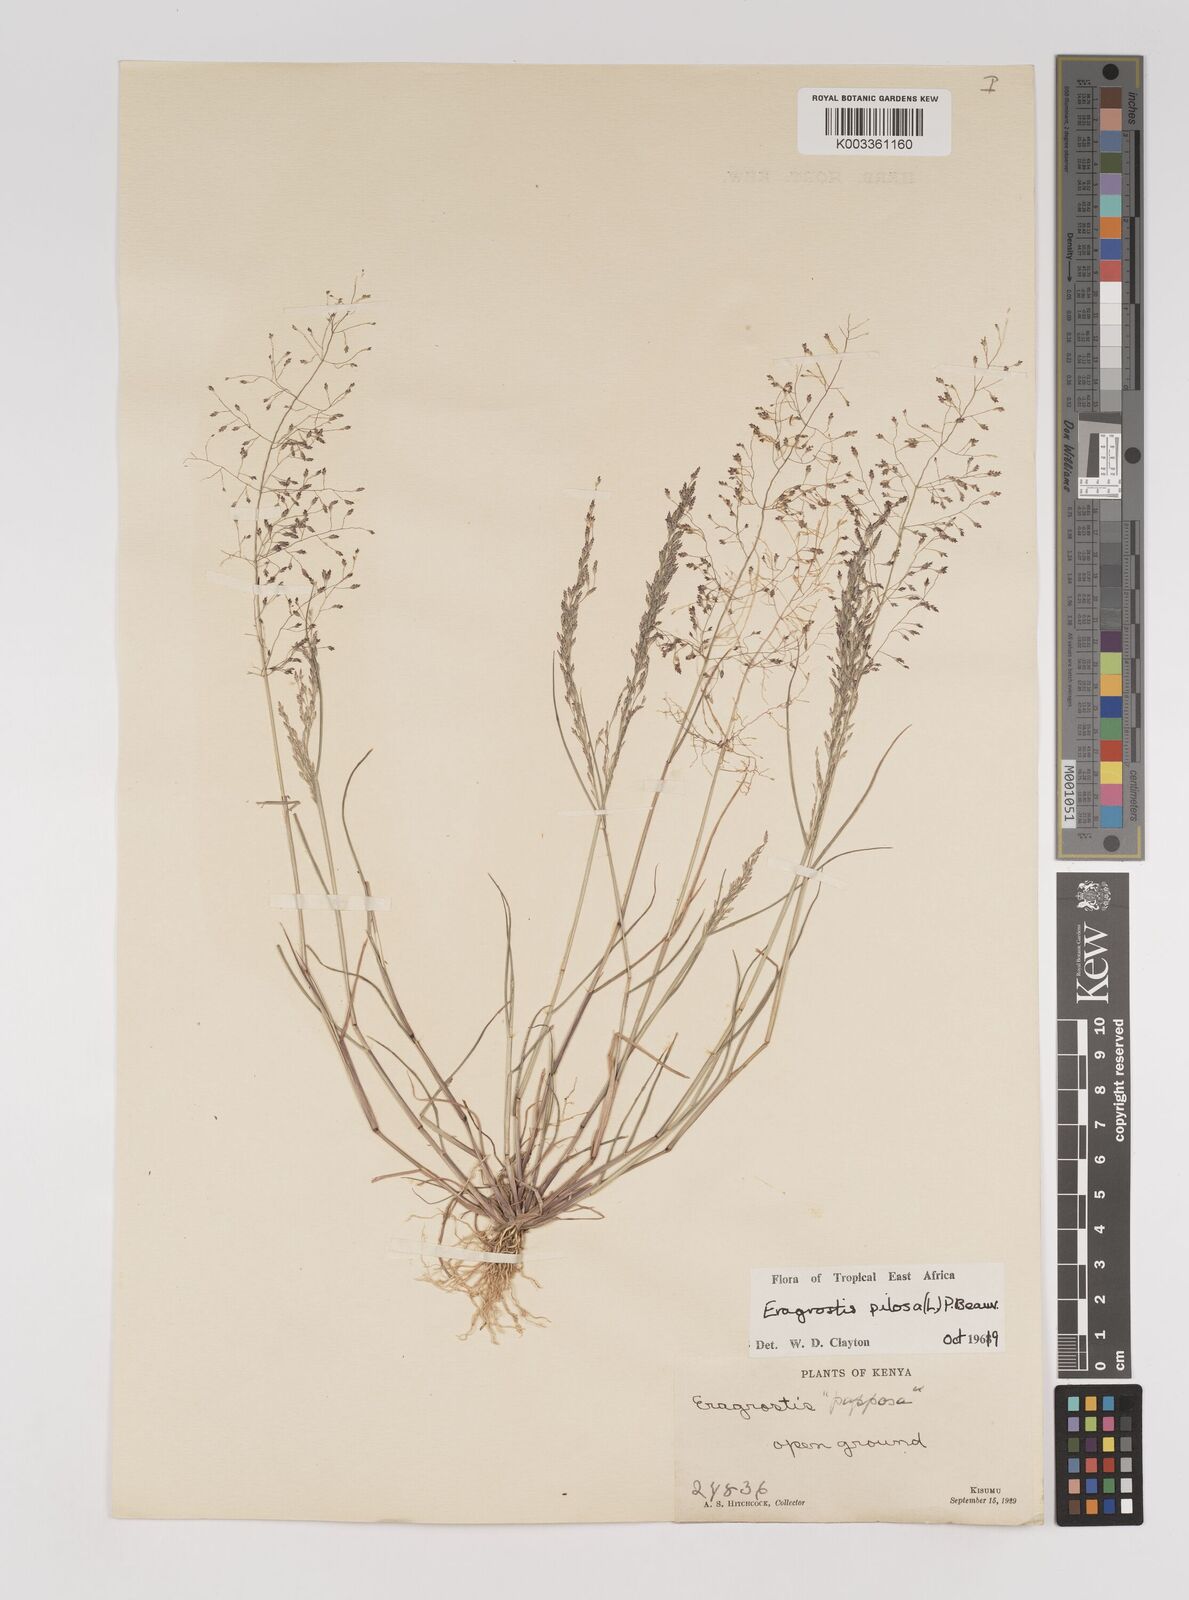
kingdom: Plantae
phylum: Tracheophyta
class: Liliopsida
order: Poales
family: Poaceae
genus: Eragrostis
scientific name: Eragrostis pilosa
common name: Indian lovegrass
